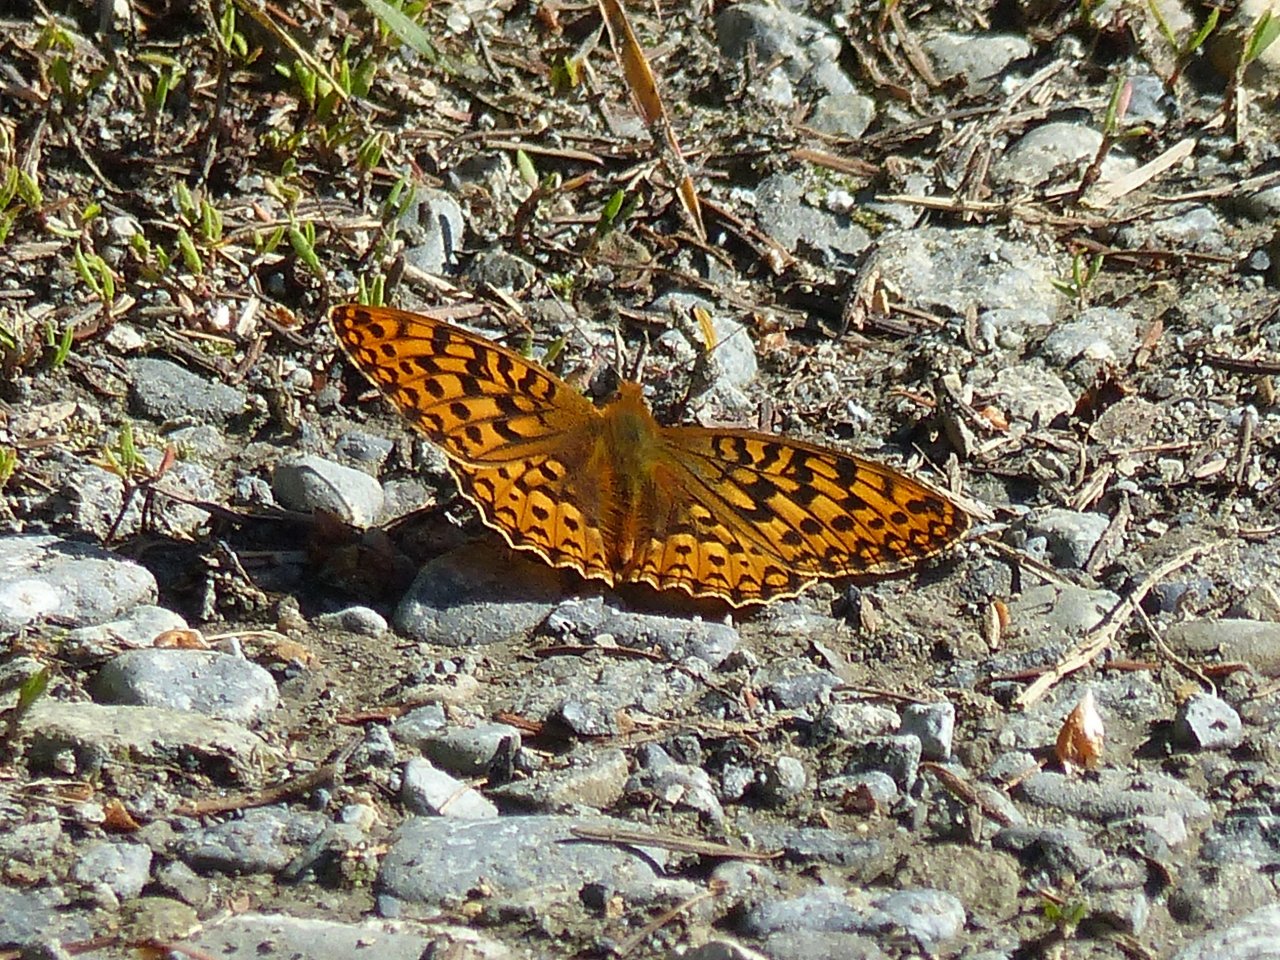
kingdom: Animalia
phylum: Arthropoda
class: Insecta
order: Lepidoptera
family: Nymphalidae
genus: Speyeria
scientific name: Speyeria zerene
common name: Zerene Fritillary
